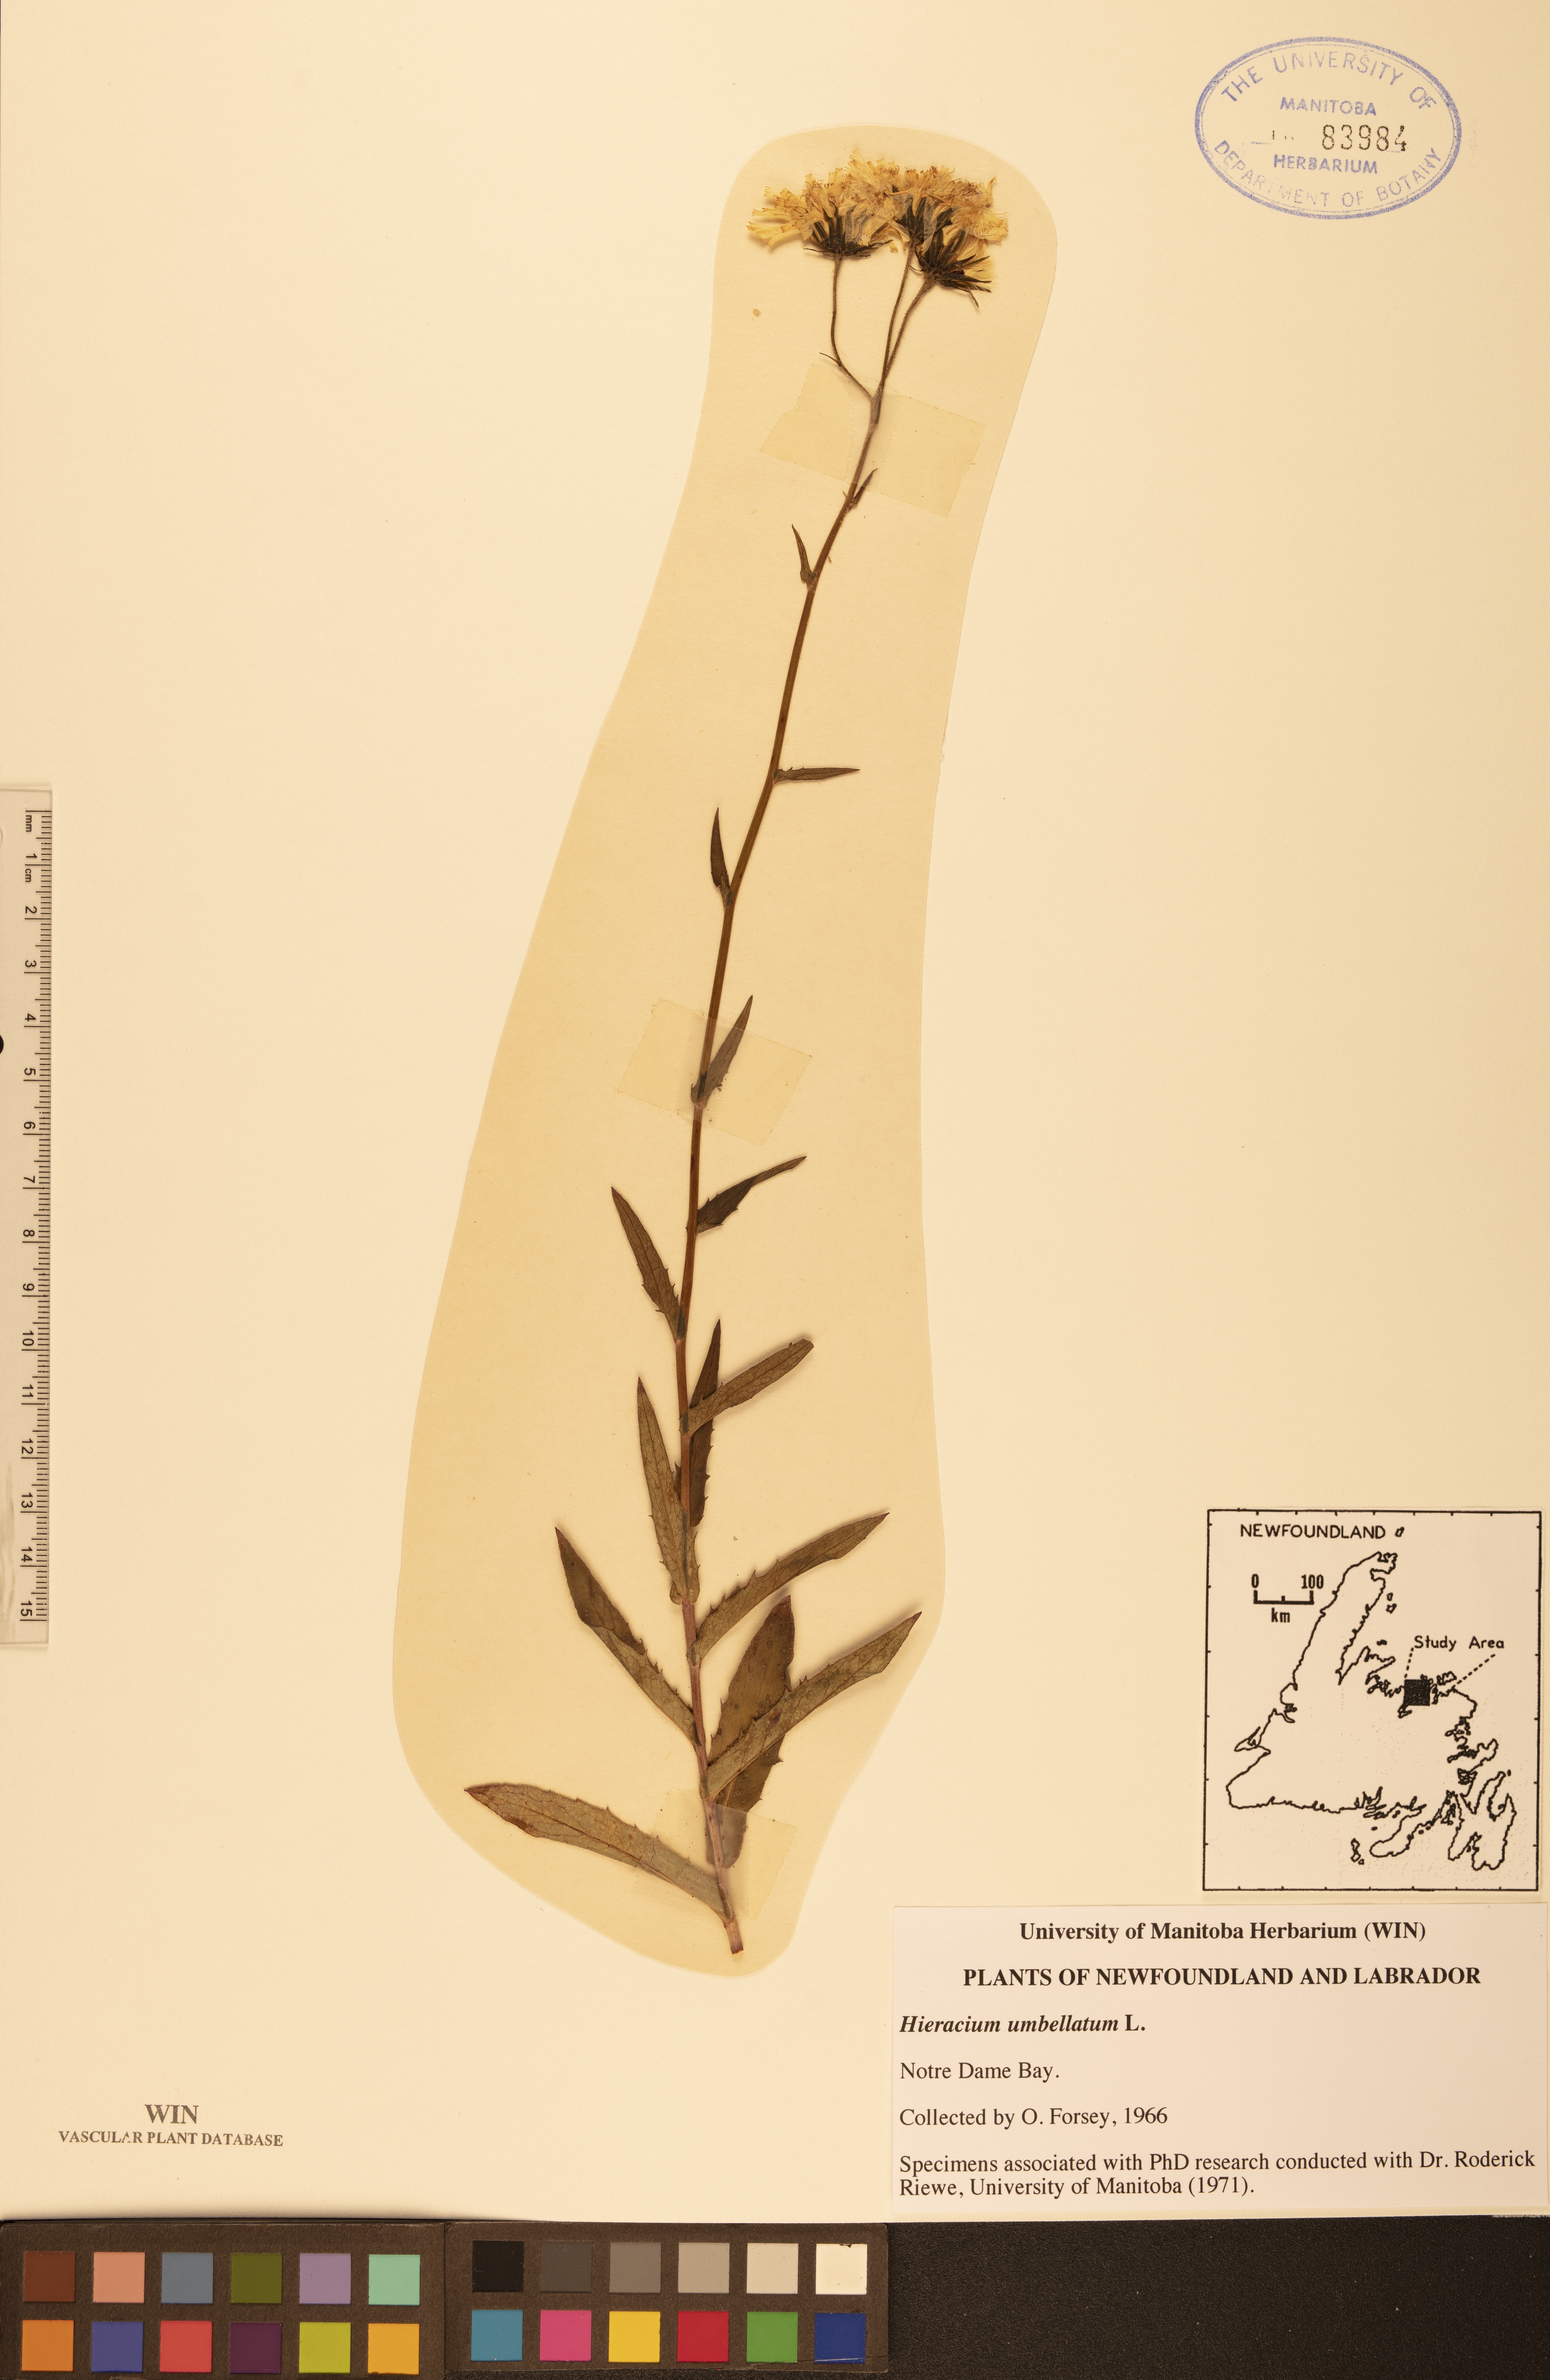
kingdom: Plantae
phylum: Tracheophyta
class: Magnoliopsida
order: Asterales
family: Asteraceae
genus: Hieracium
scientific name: Hieracium umbellatum
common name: Northern hawkweed
